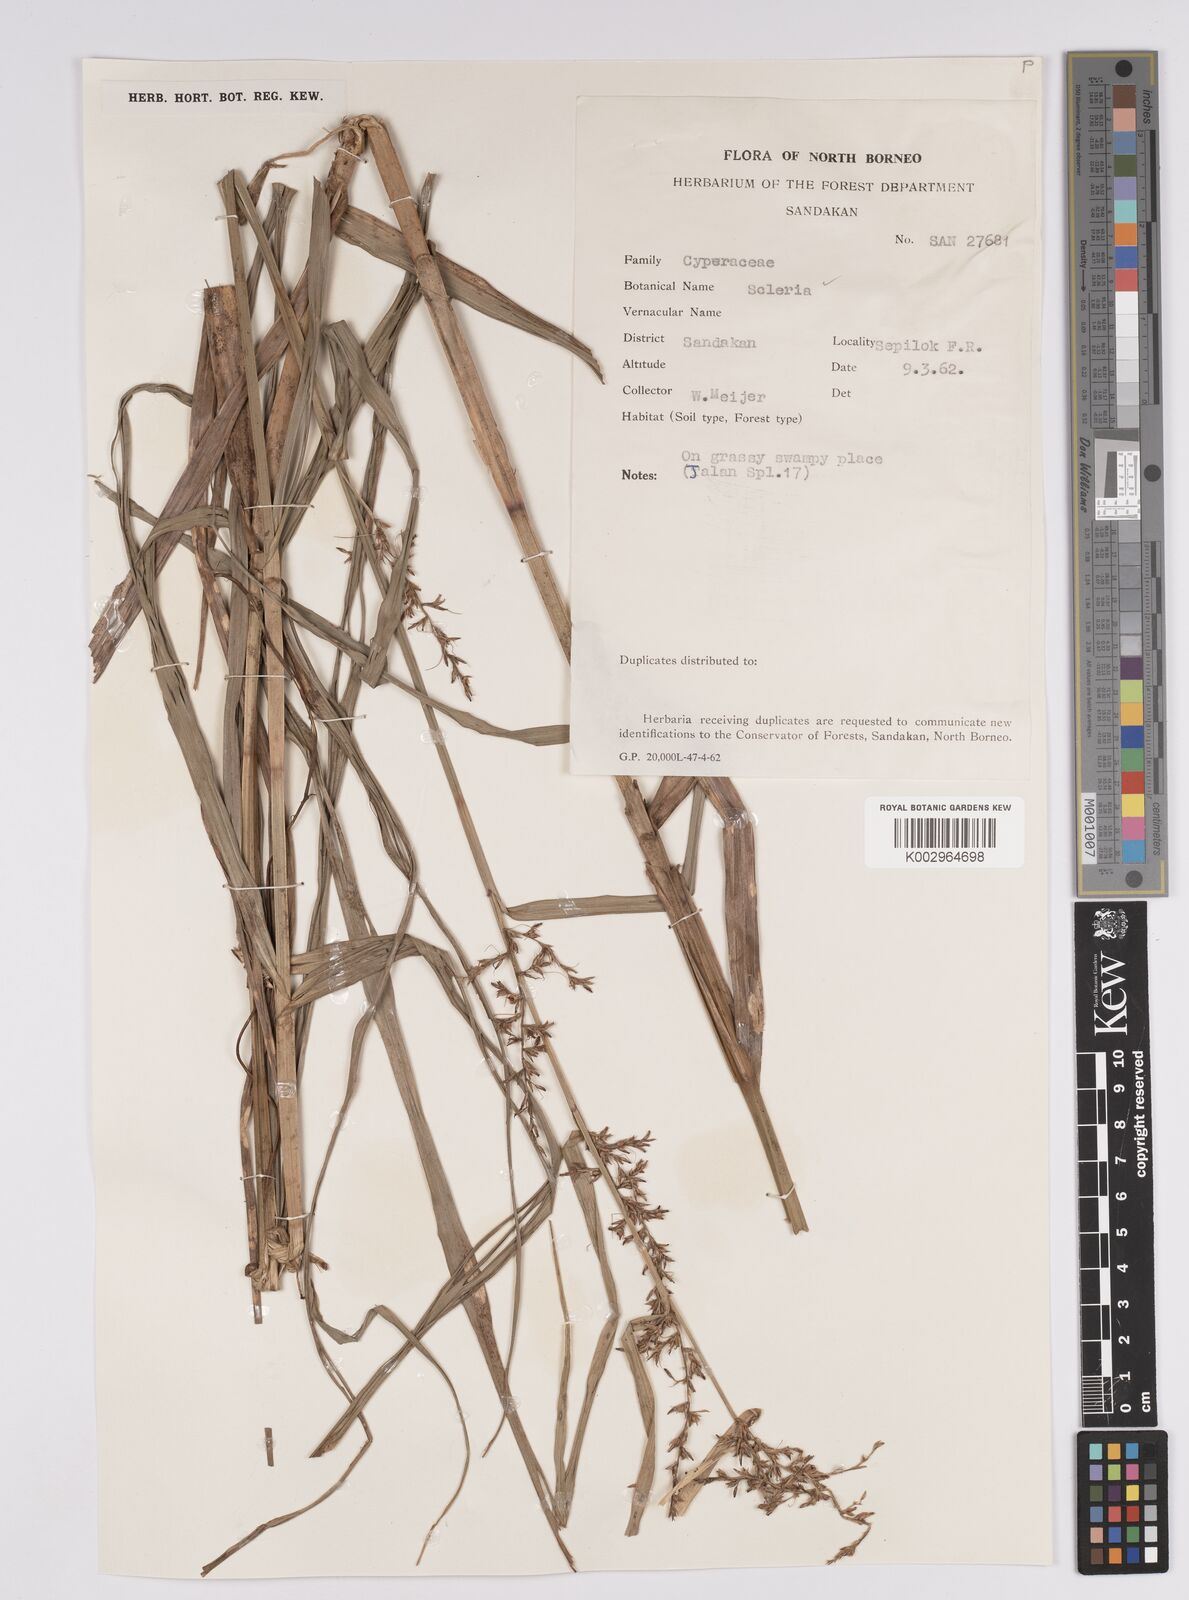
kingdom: Plantae
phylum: Tracheophyta
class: Liliopsida
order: Poales
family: Cyperaceae
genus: Scleria
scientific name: Scleria
